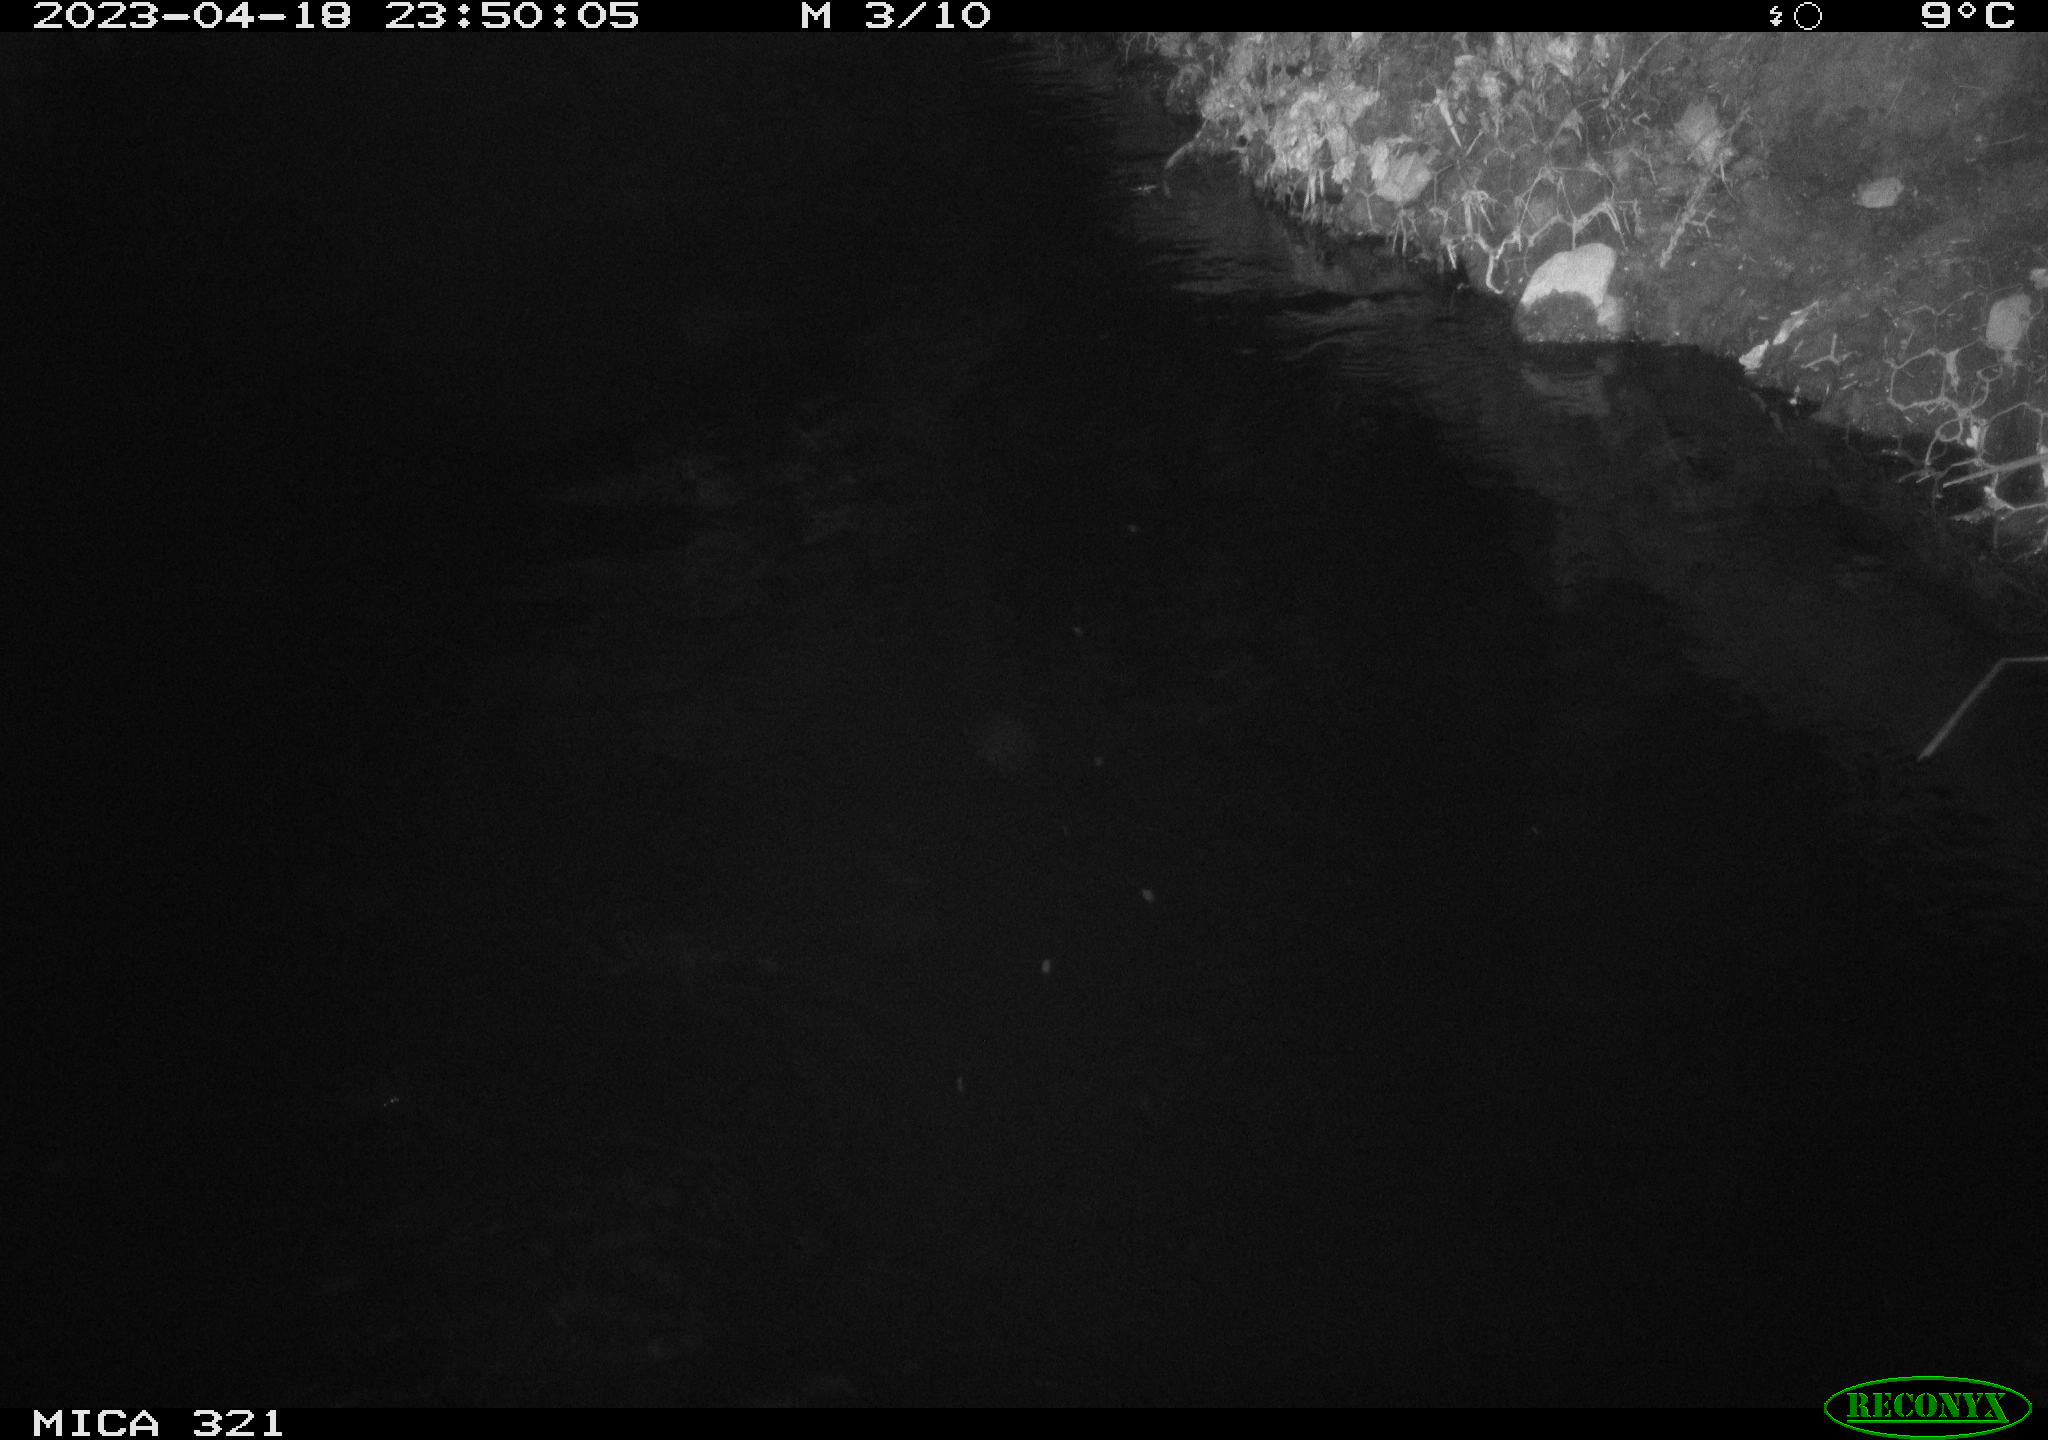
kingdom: Animalia
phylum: Chordata
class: Aves
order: Anseriformes
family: Anatidae
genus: Anas
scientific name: Anas
